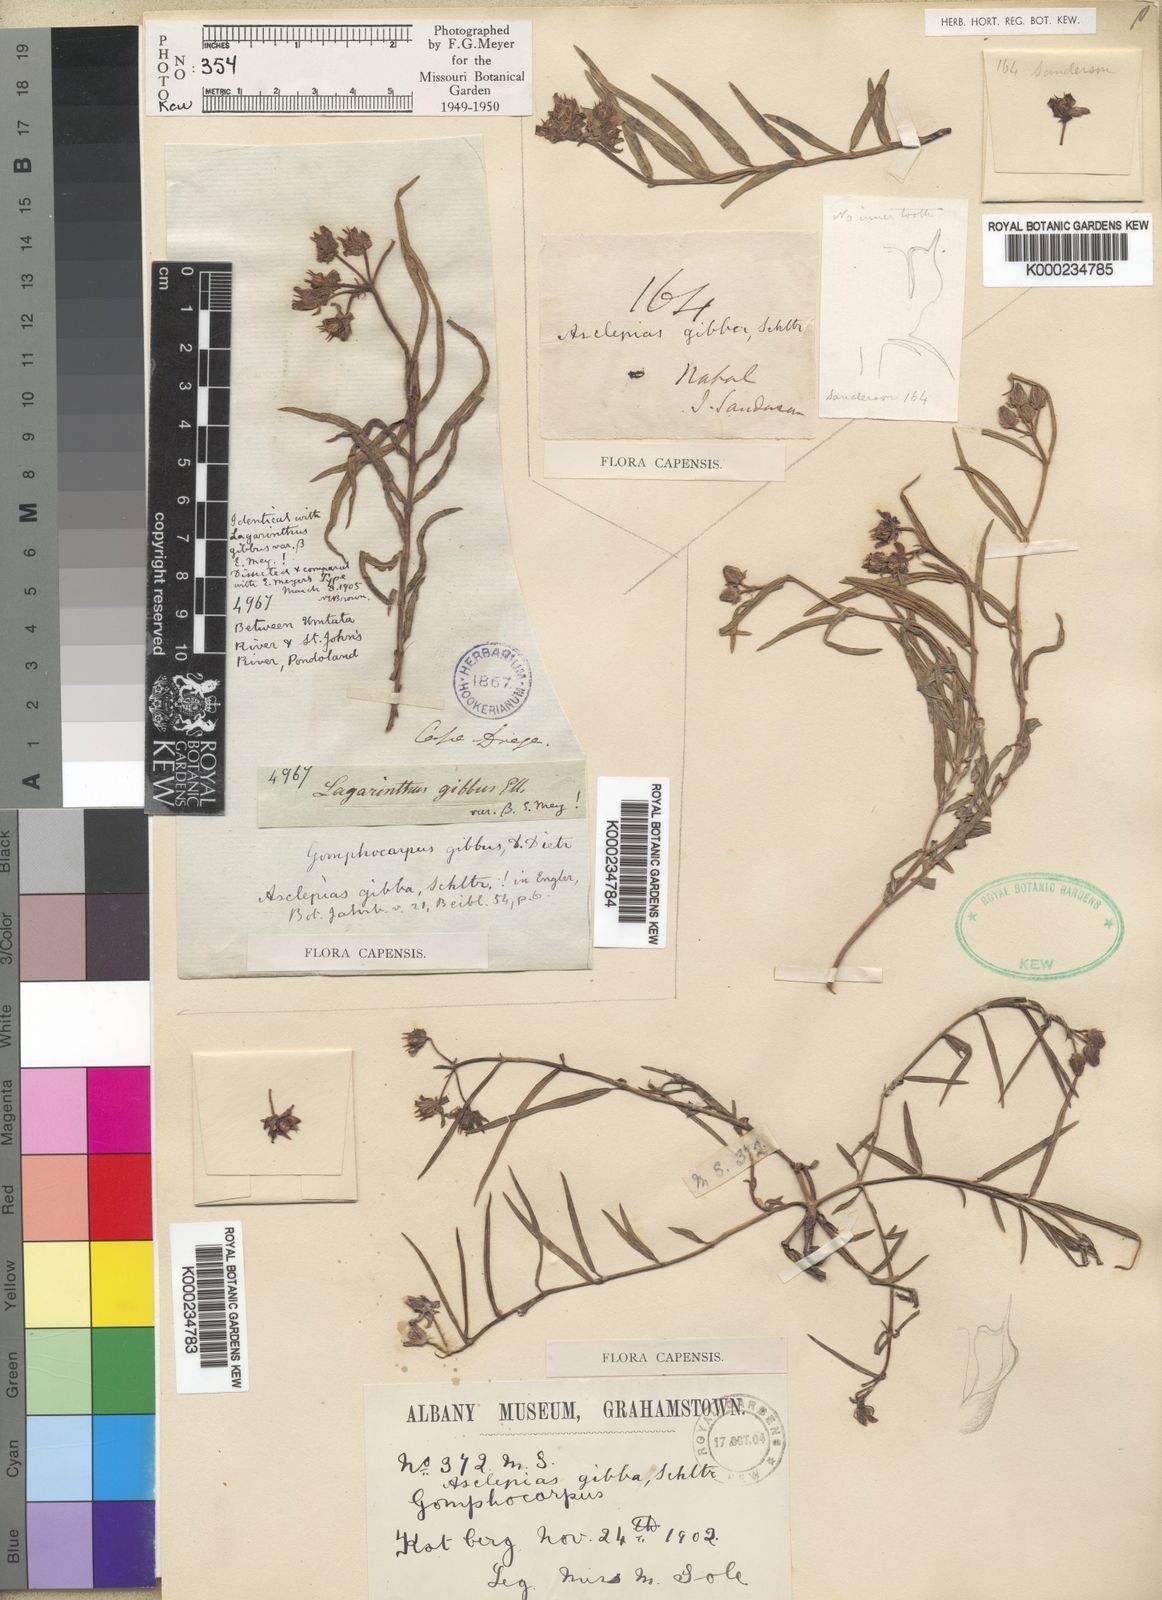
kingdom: Plantae
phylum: Tracheophyta
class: Magnoliopsida
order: Gentianales
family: Apocynaceae
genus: Asclepias
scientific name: Asclepias gibba
